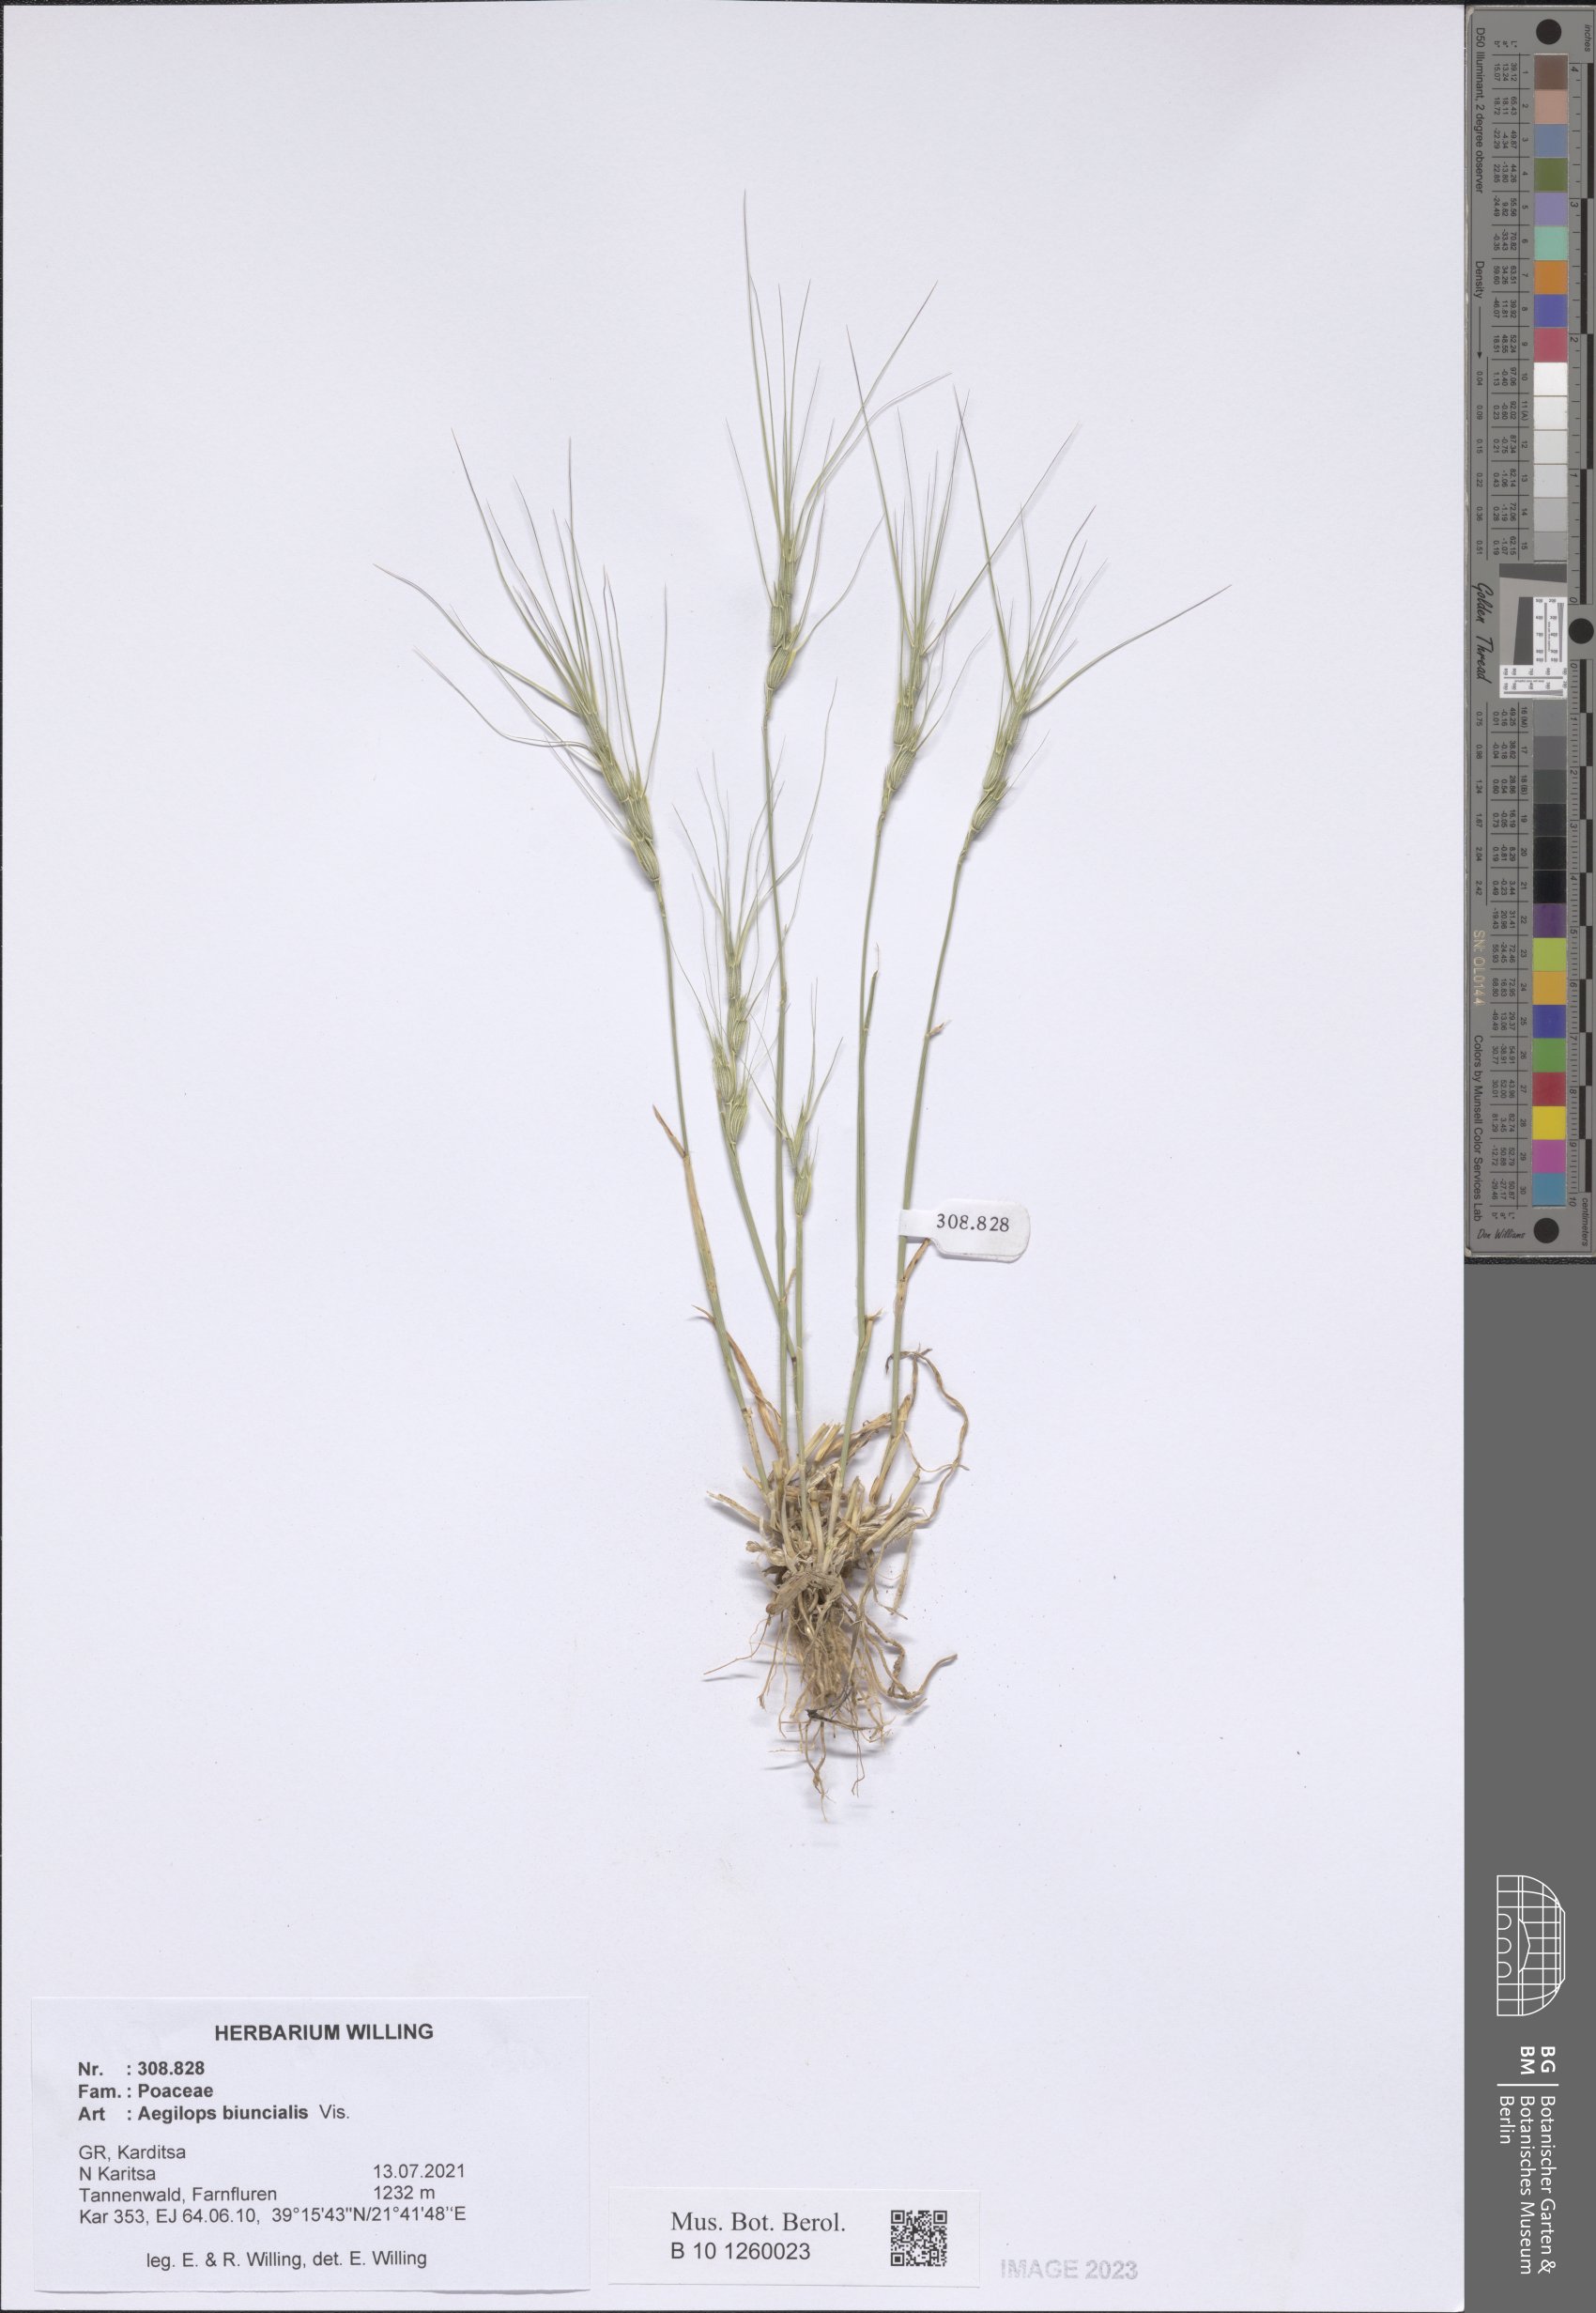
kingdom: Plantae
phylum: Tracheophyta
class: Liliopsida
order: Poales
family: Poaceae
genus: Aegilops
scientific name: Aegilops biuncialis
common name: Mediterranean aegilops
